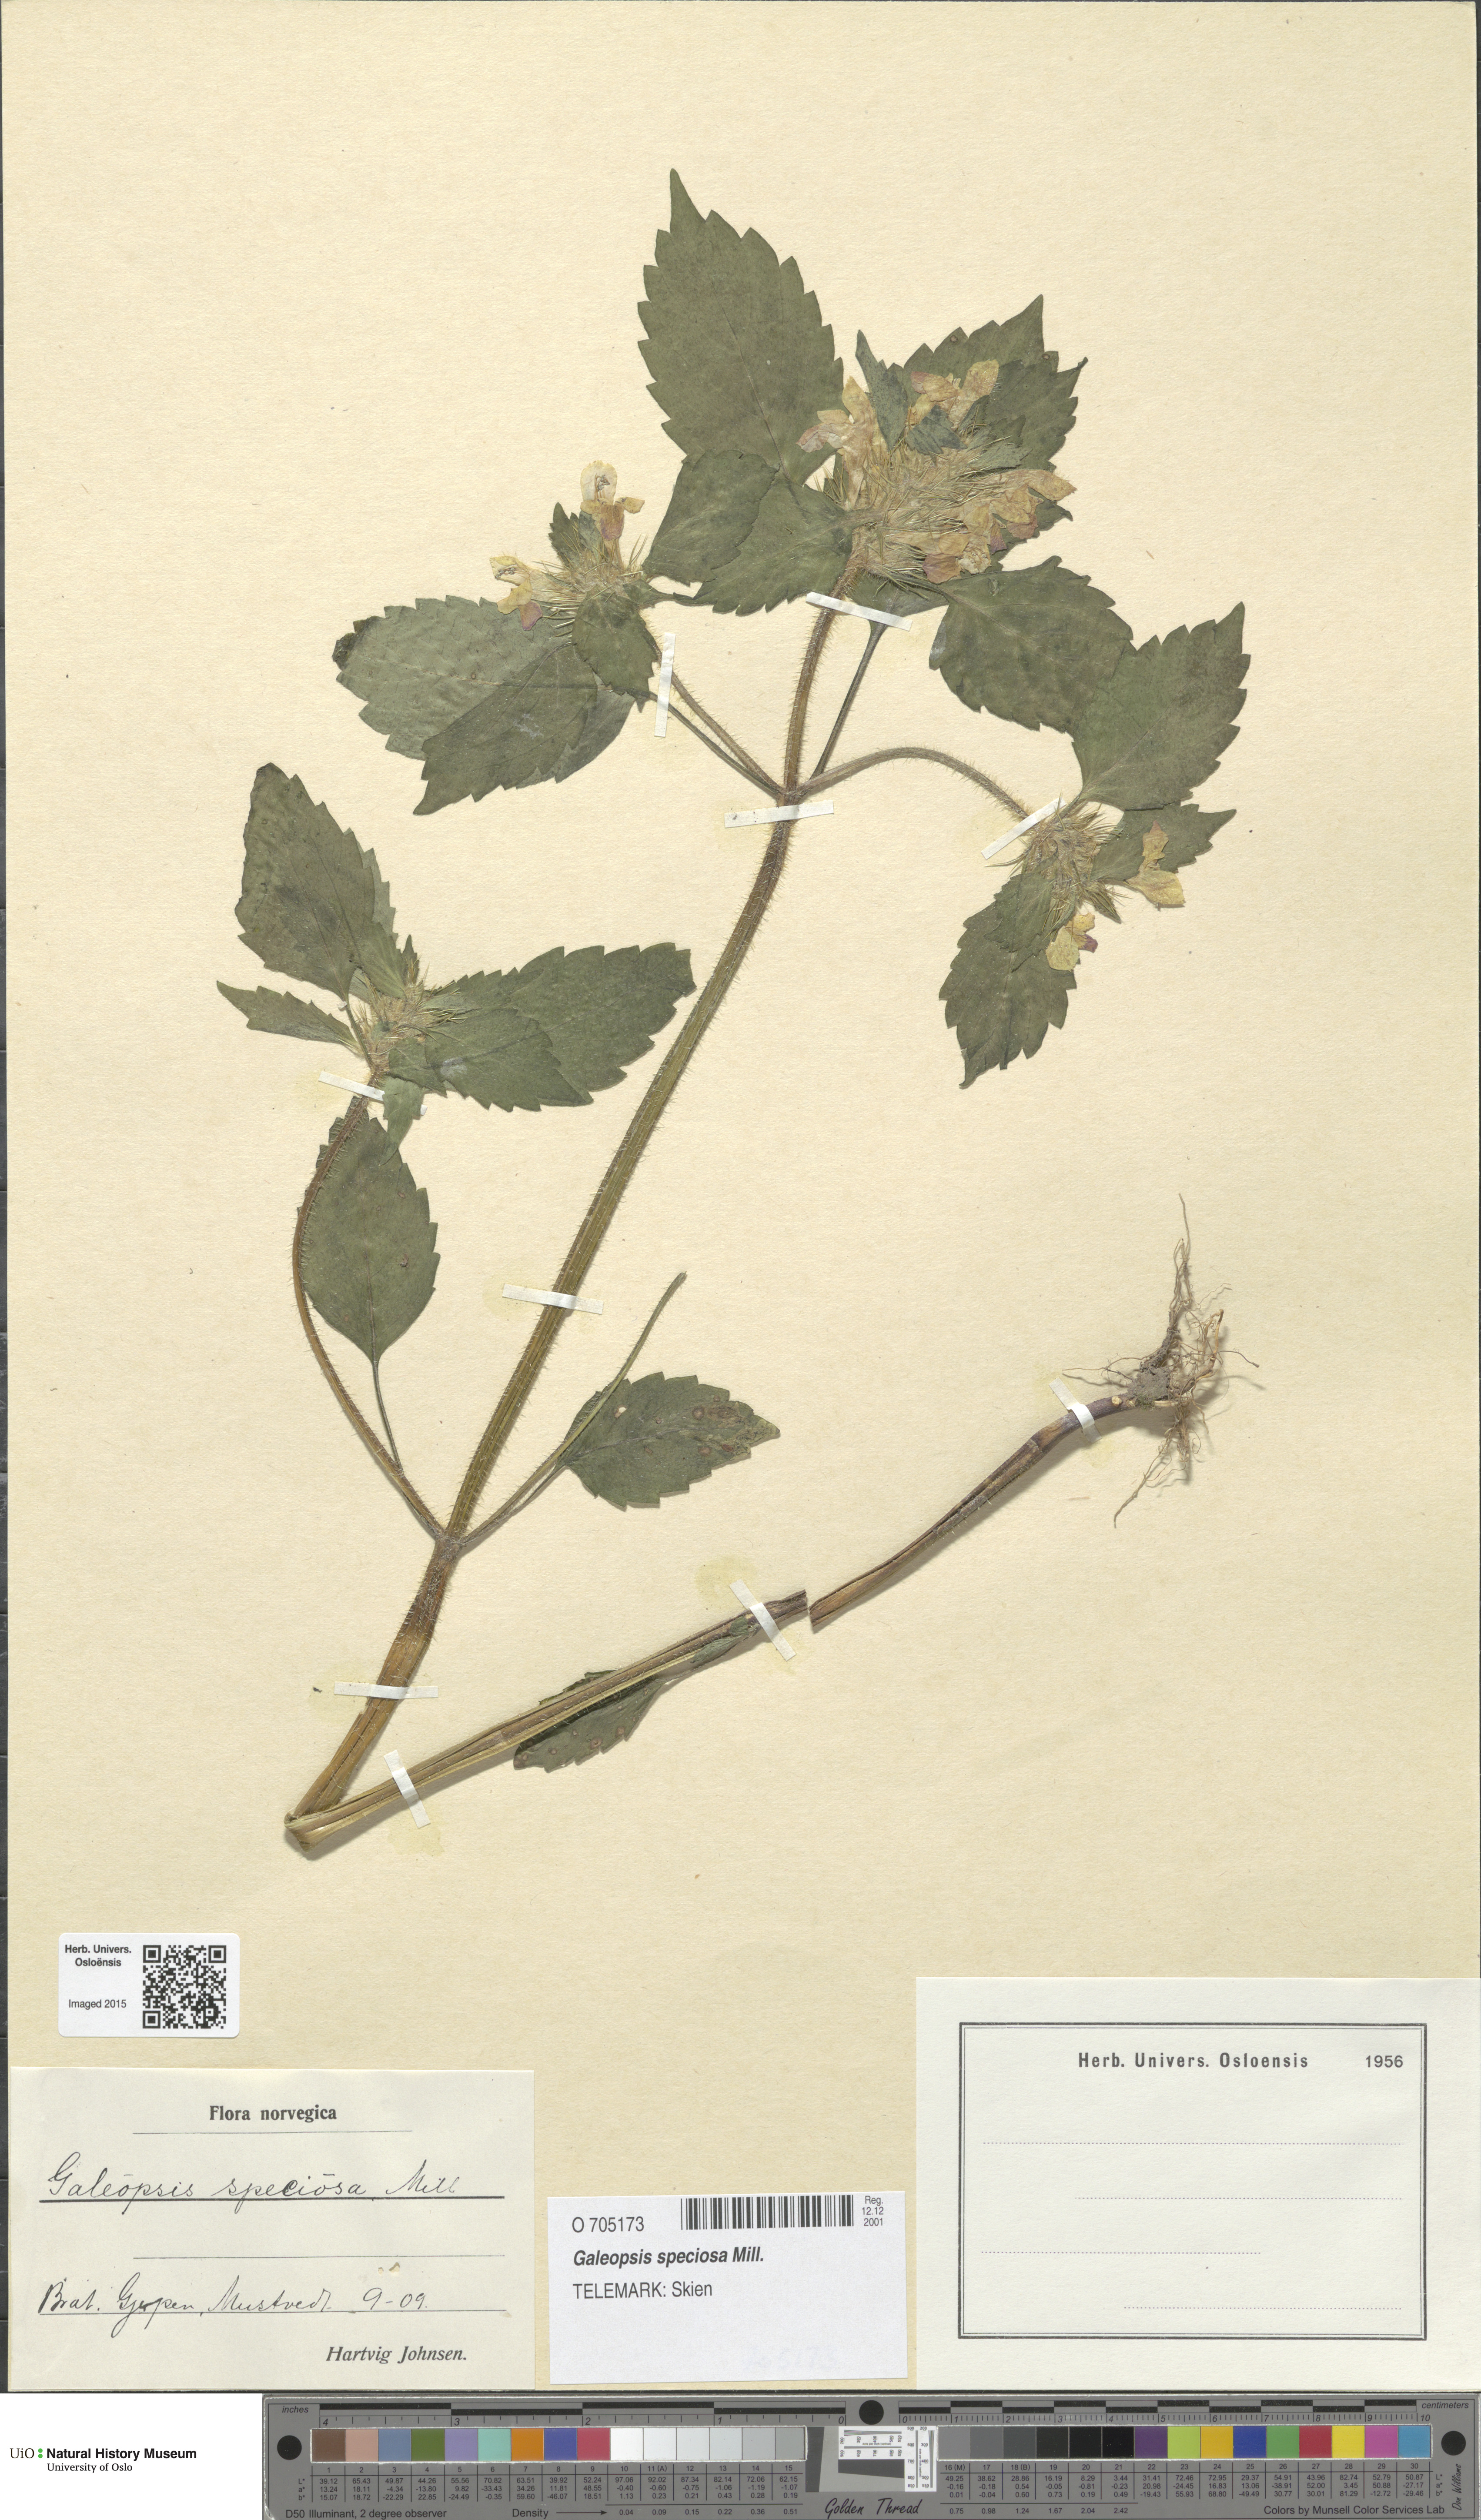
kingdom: Plantae
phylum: Tracheophyta
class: Magnoliopsida
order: Lamiales
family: Lamiaceae
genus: Galeopsis
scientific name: Galeopsis speciosa
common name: Large-flowered hemp-nettle
